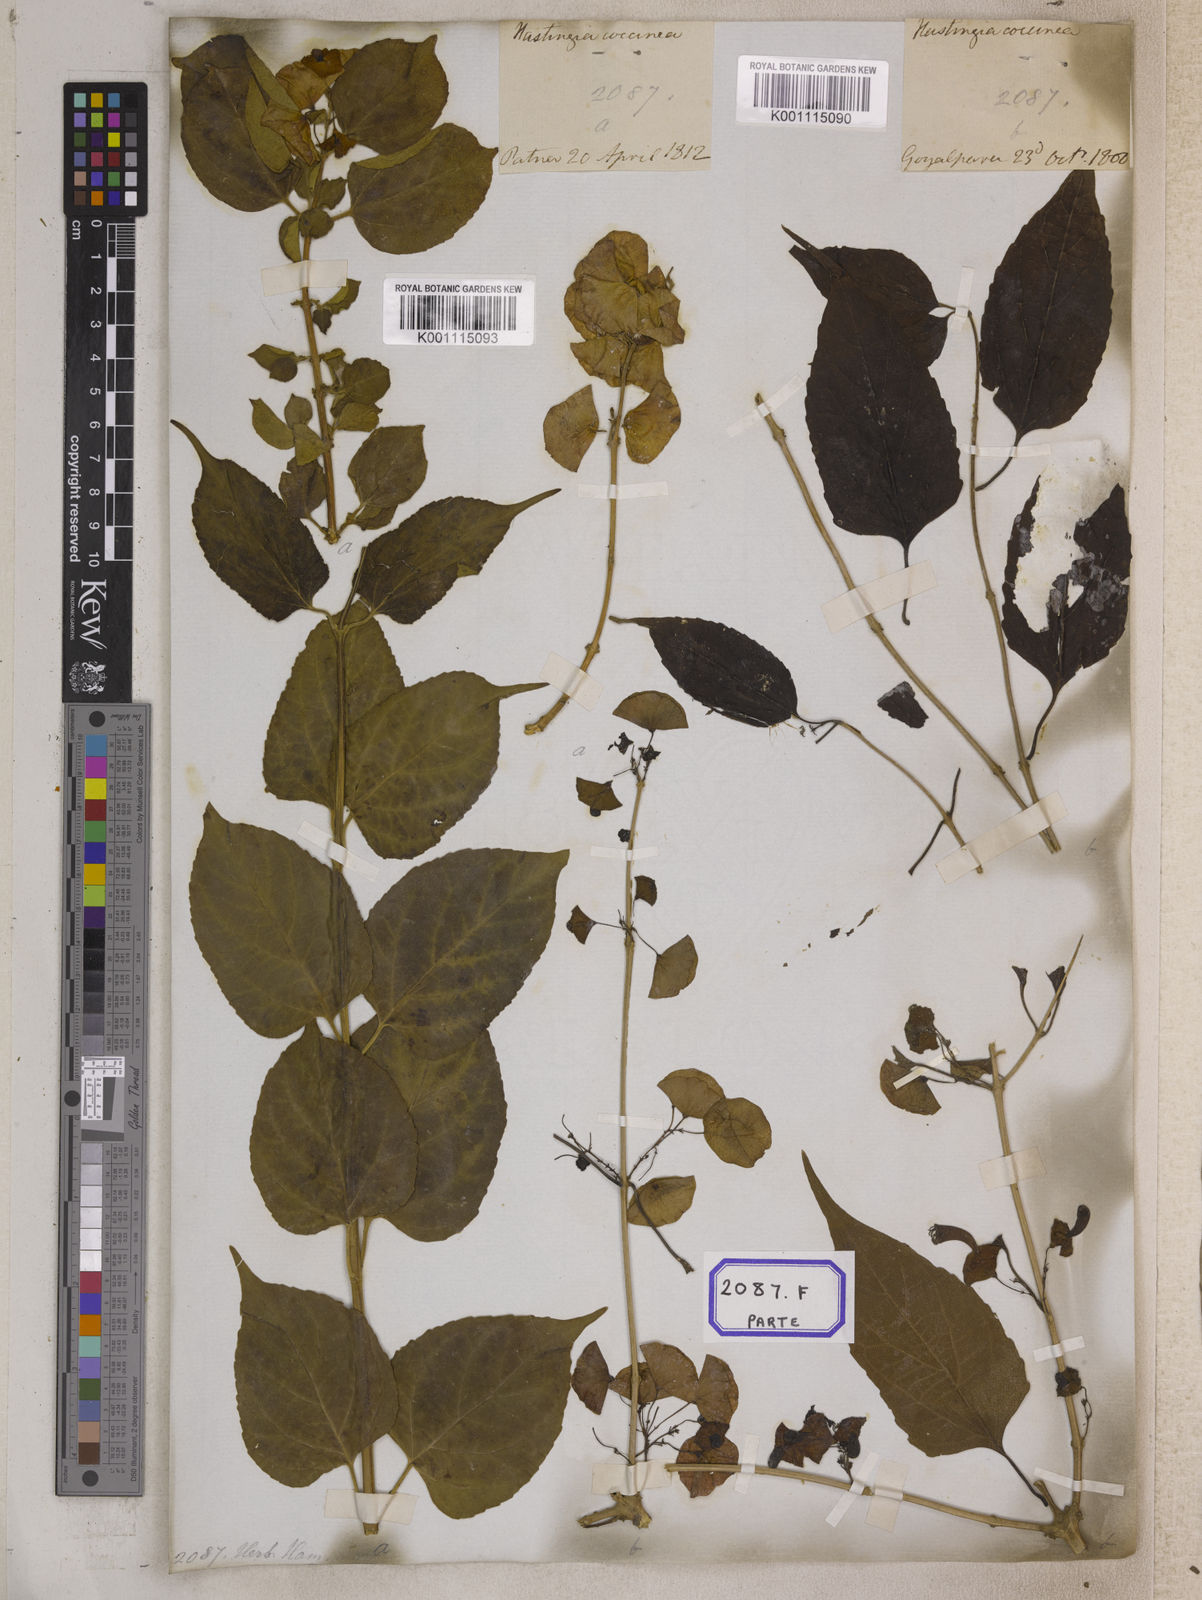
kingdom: Plantae
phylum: Tracheophyta
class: Magnoliopsida
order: Lamiales
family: Lamiaceae
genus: Holmskioldia
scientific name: Holmskioldia sanguinea
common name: Chinese hatplant
